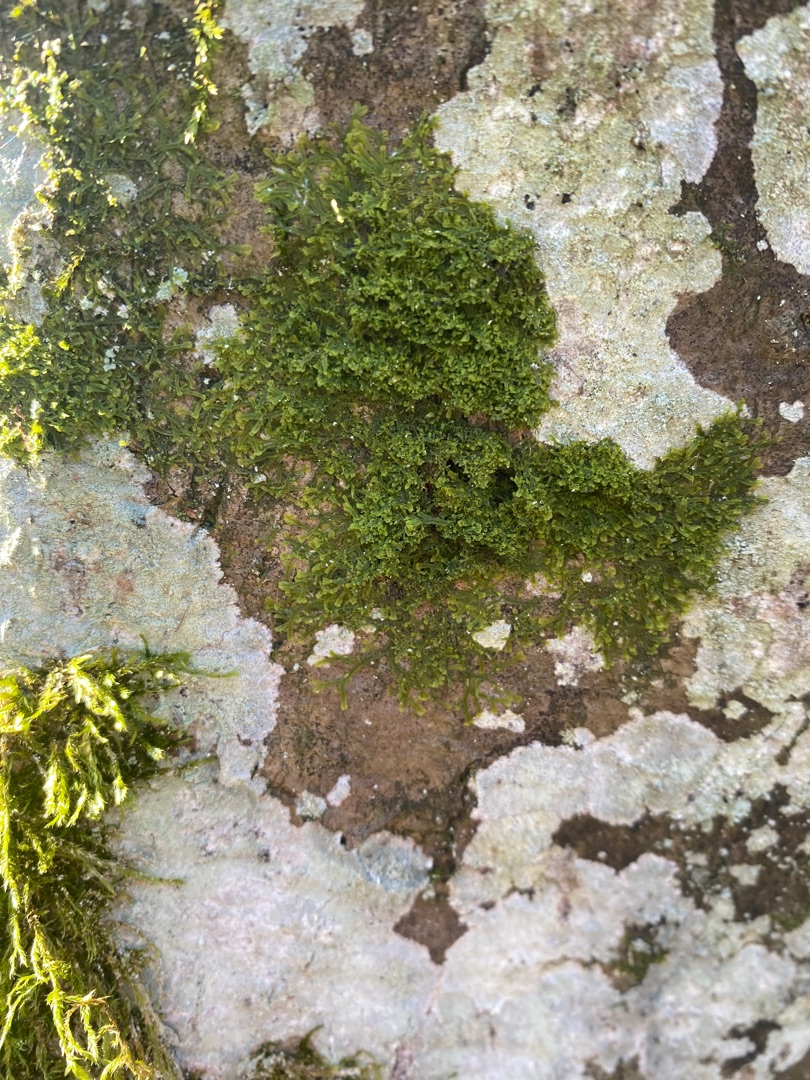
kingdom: Plantae
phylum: Marchantiophyta
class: Jungermanniopsida
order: Metzgeriales
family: Metzgeriaceae
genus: Metzgeria
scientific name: Metzgeria furcata
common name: Almindelig gaffelløv
